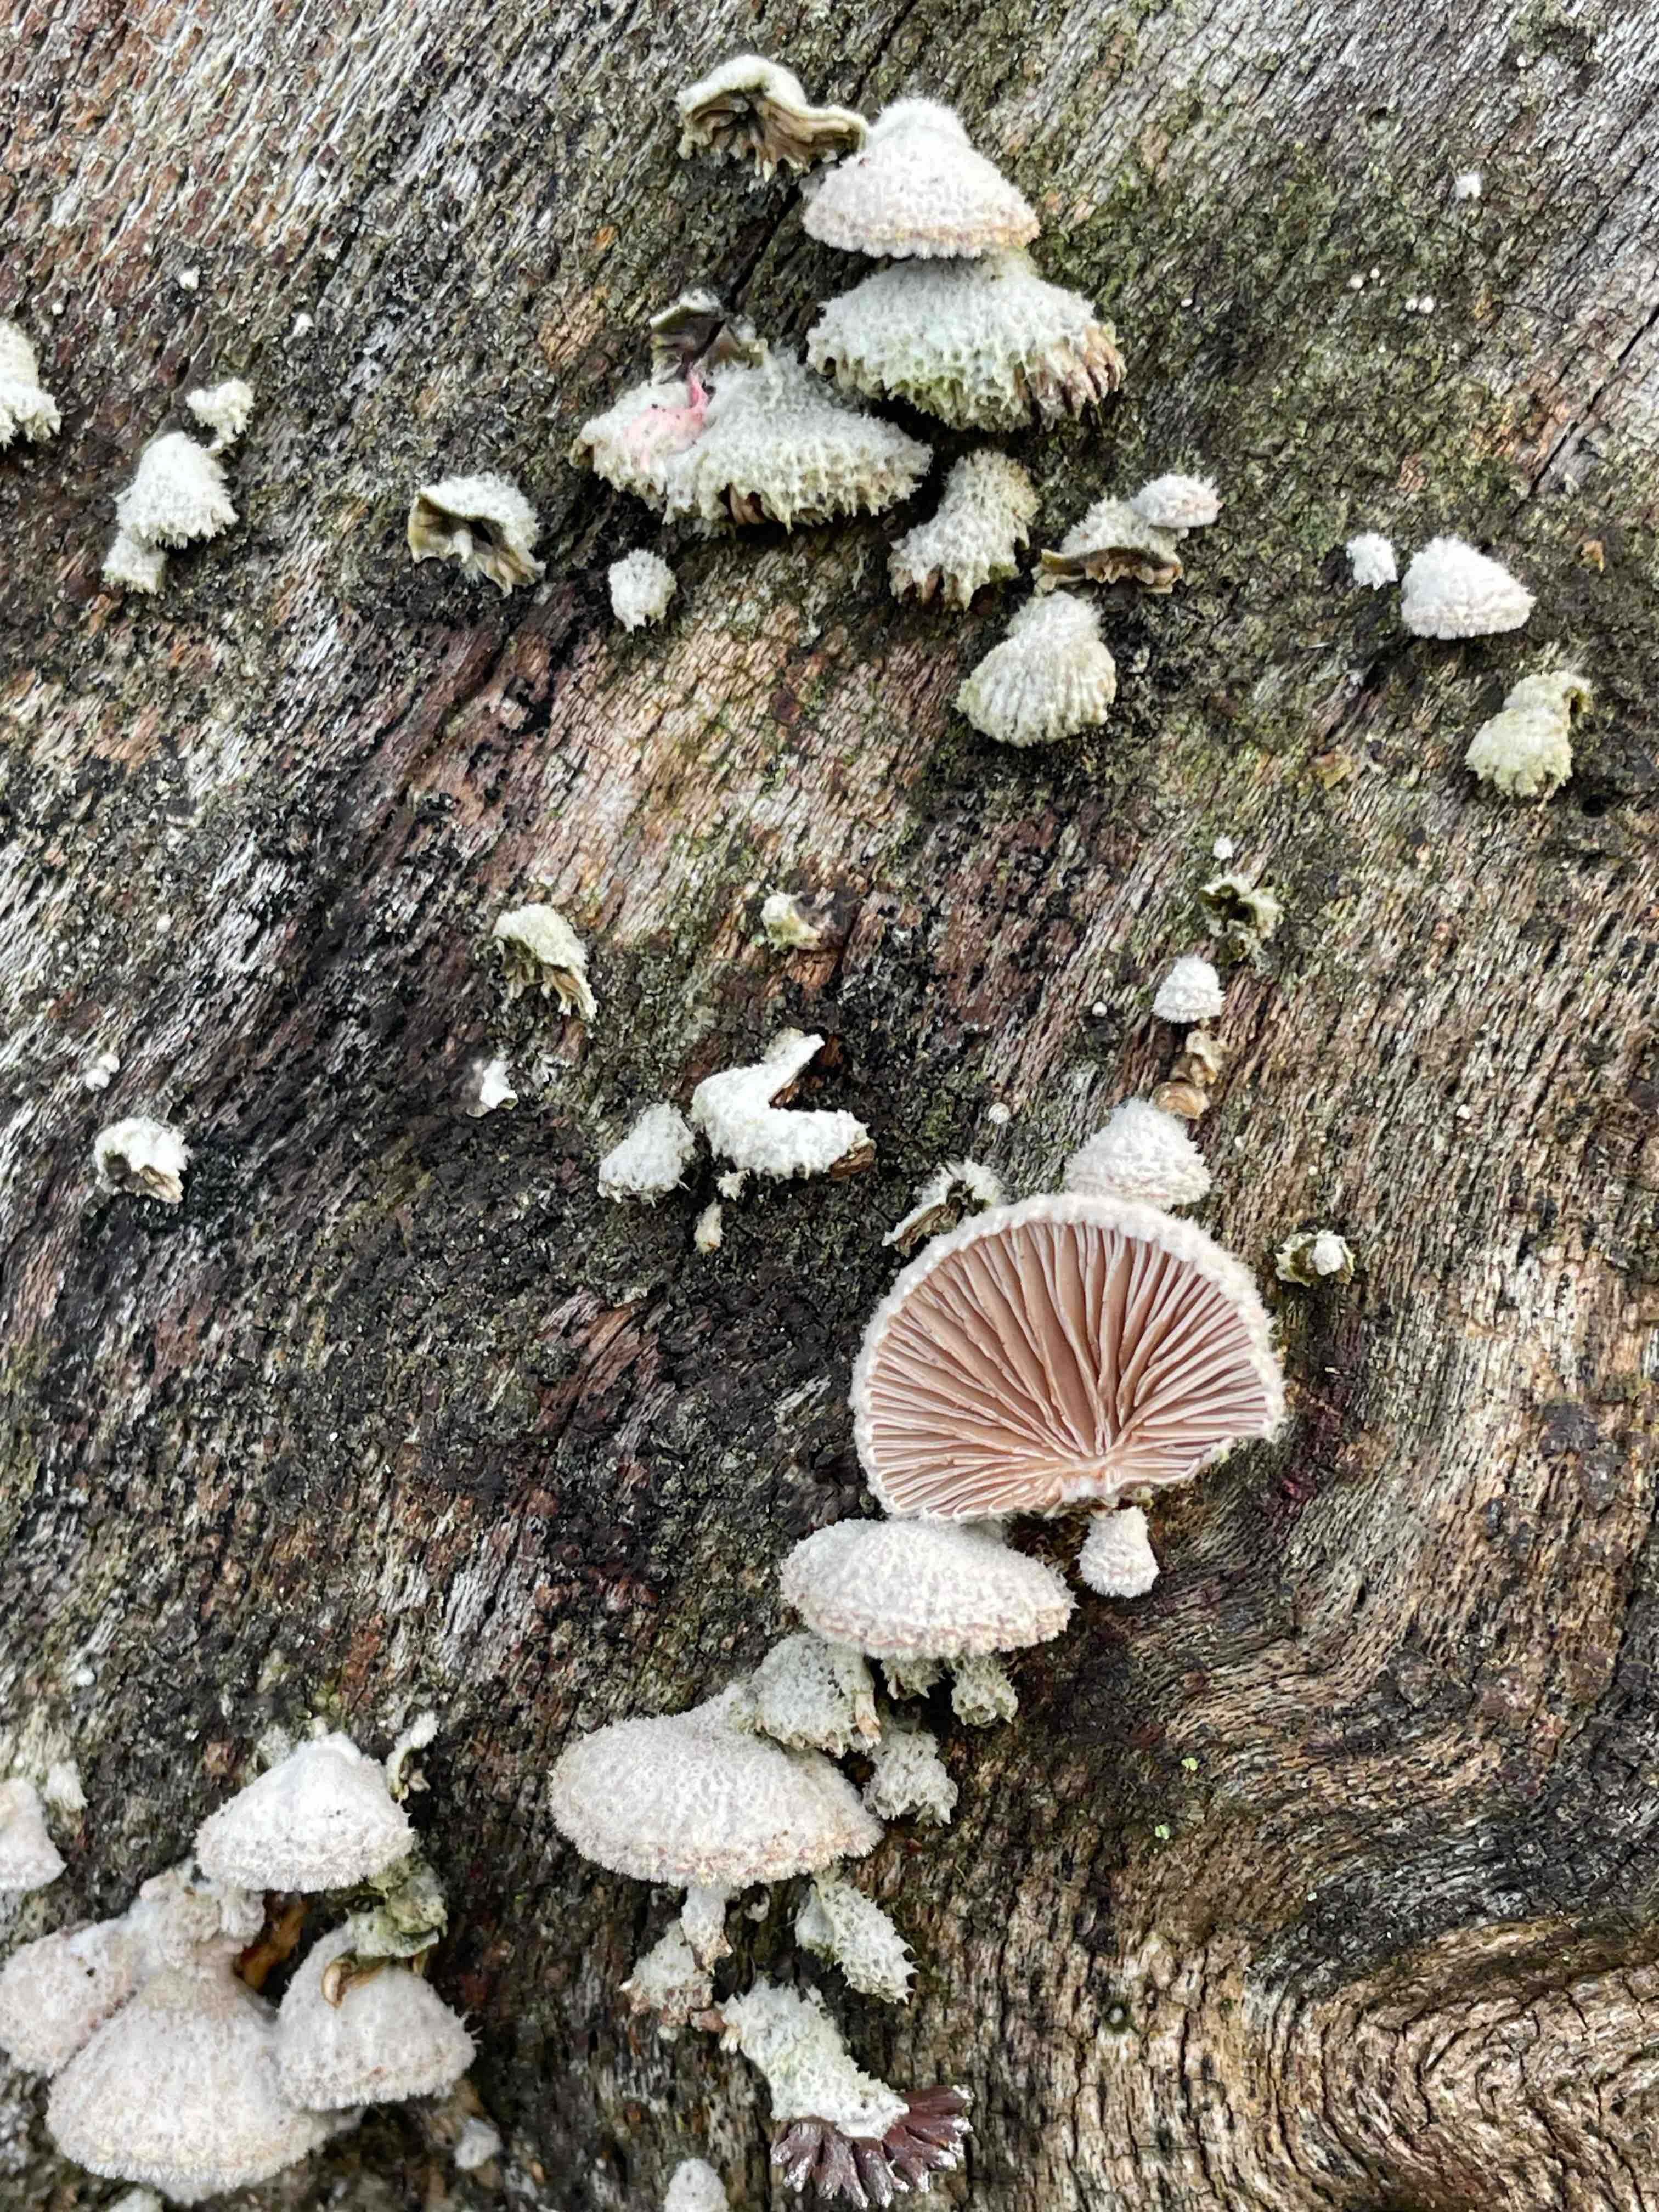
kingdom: Fungi
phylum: Basidiomycota
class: Agaricomycetes
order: Agaricales
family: Schizophyllaceae
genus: Schizophyllum
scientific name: Schizophyllum commune
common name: kløvblad
